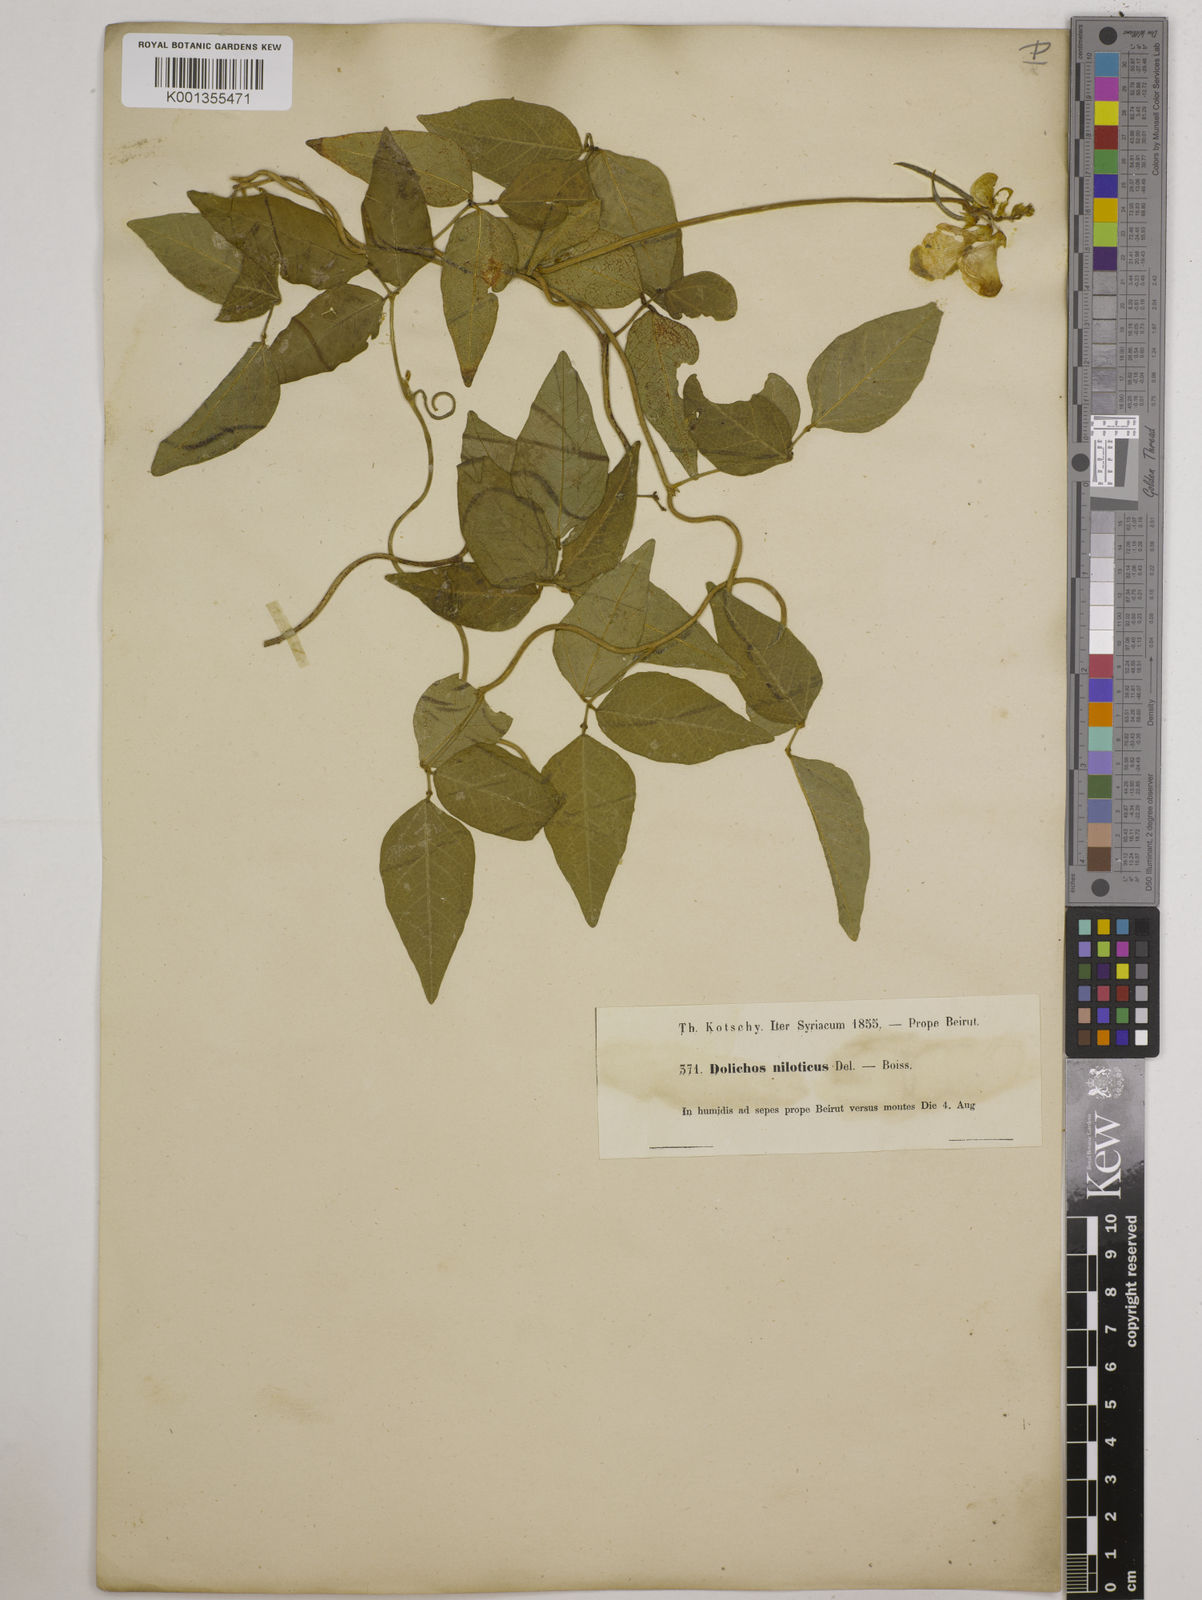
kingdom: Plantae
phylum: Tracheophyta
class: Magnoliopsida
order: Fabales
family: Fabaceae
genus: Vigna
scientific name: Vigna luteola
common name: Hairypod cowpea
